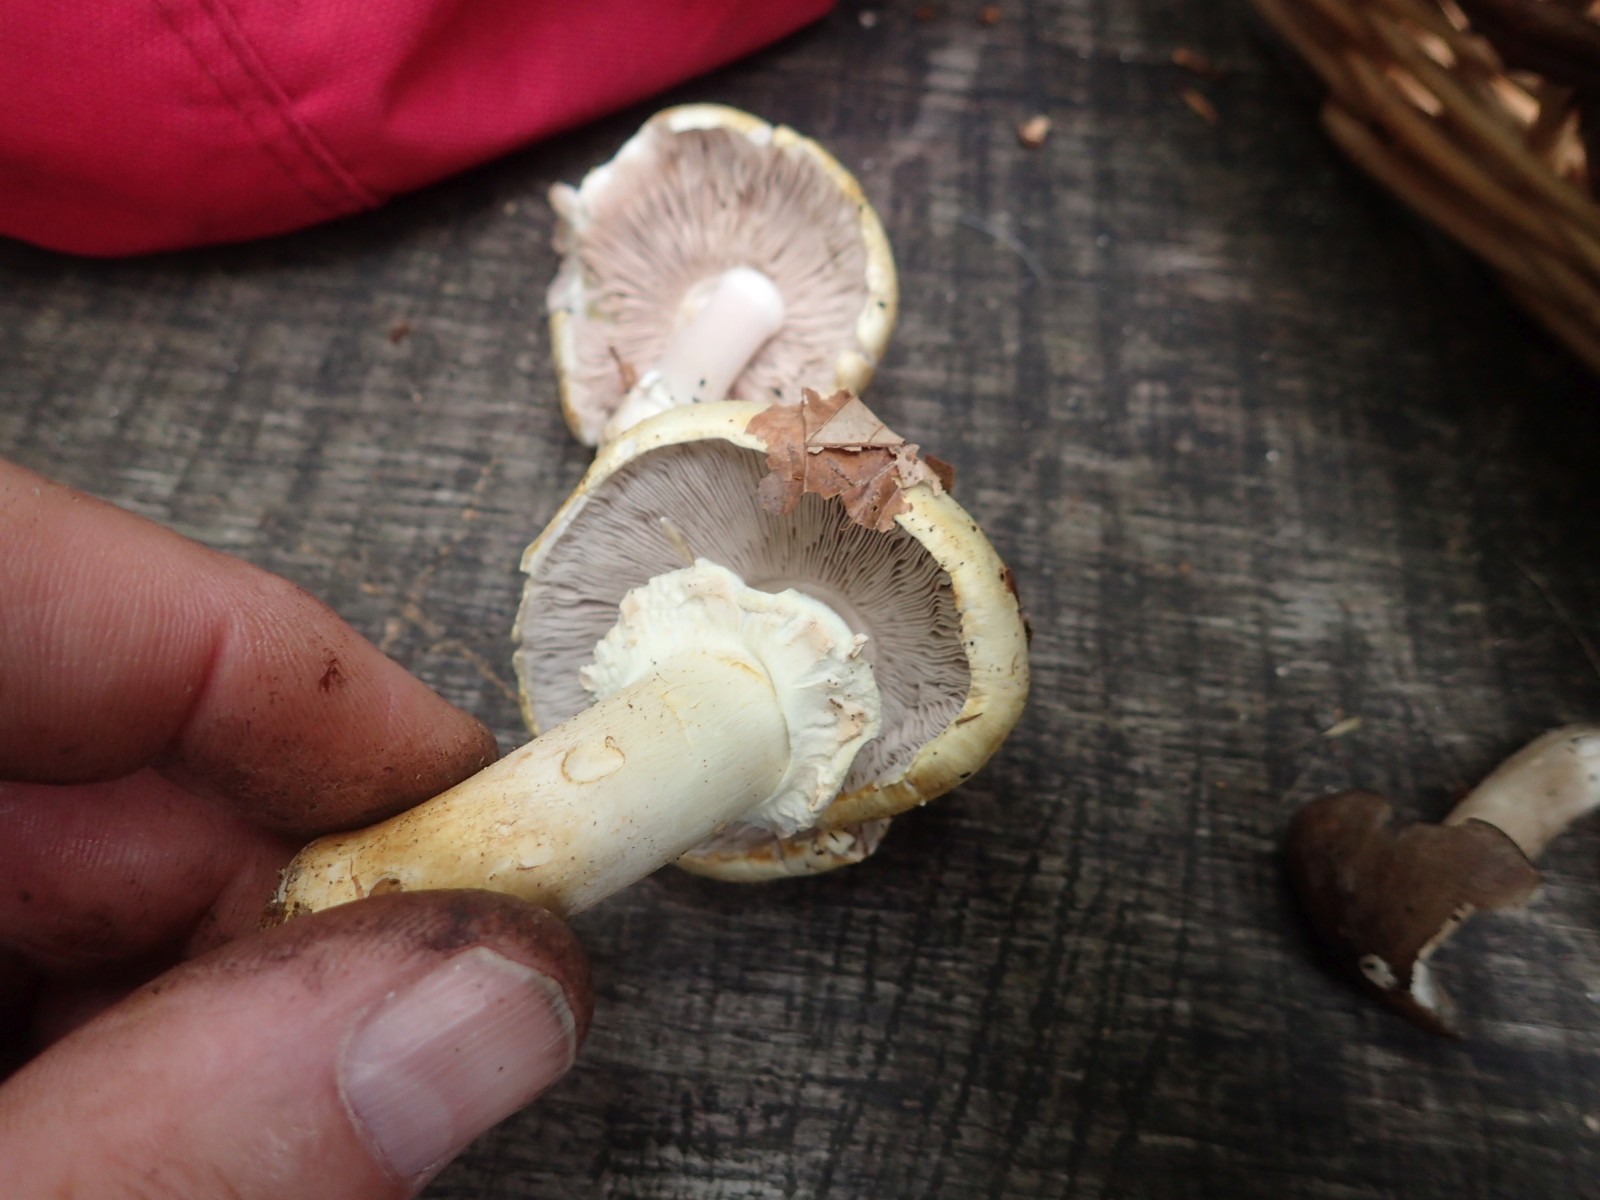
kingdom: Fungi
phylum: Basidiomycota
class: Agaricomycetes
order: Agaricales
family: Agaricaceae
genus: Agaricus
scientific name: Agaricus sylvicola
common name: skiveknoldet champignon
